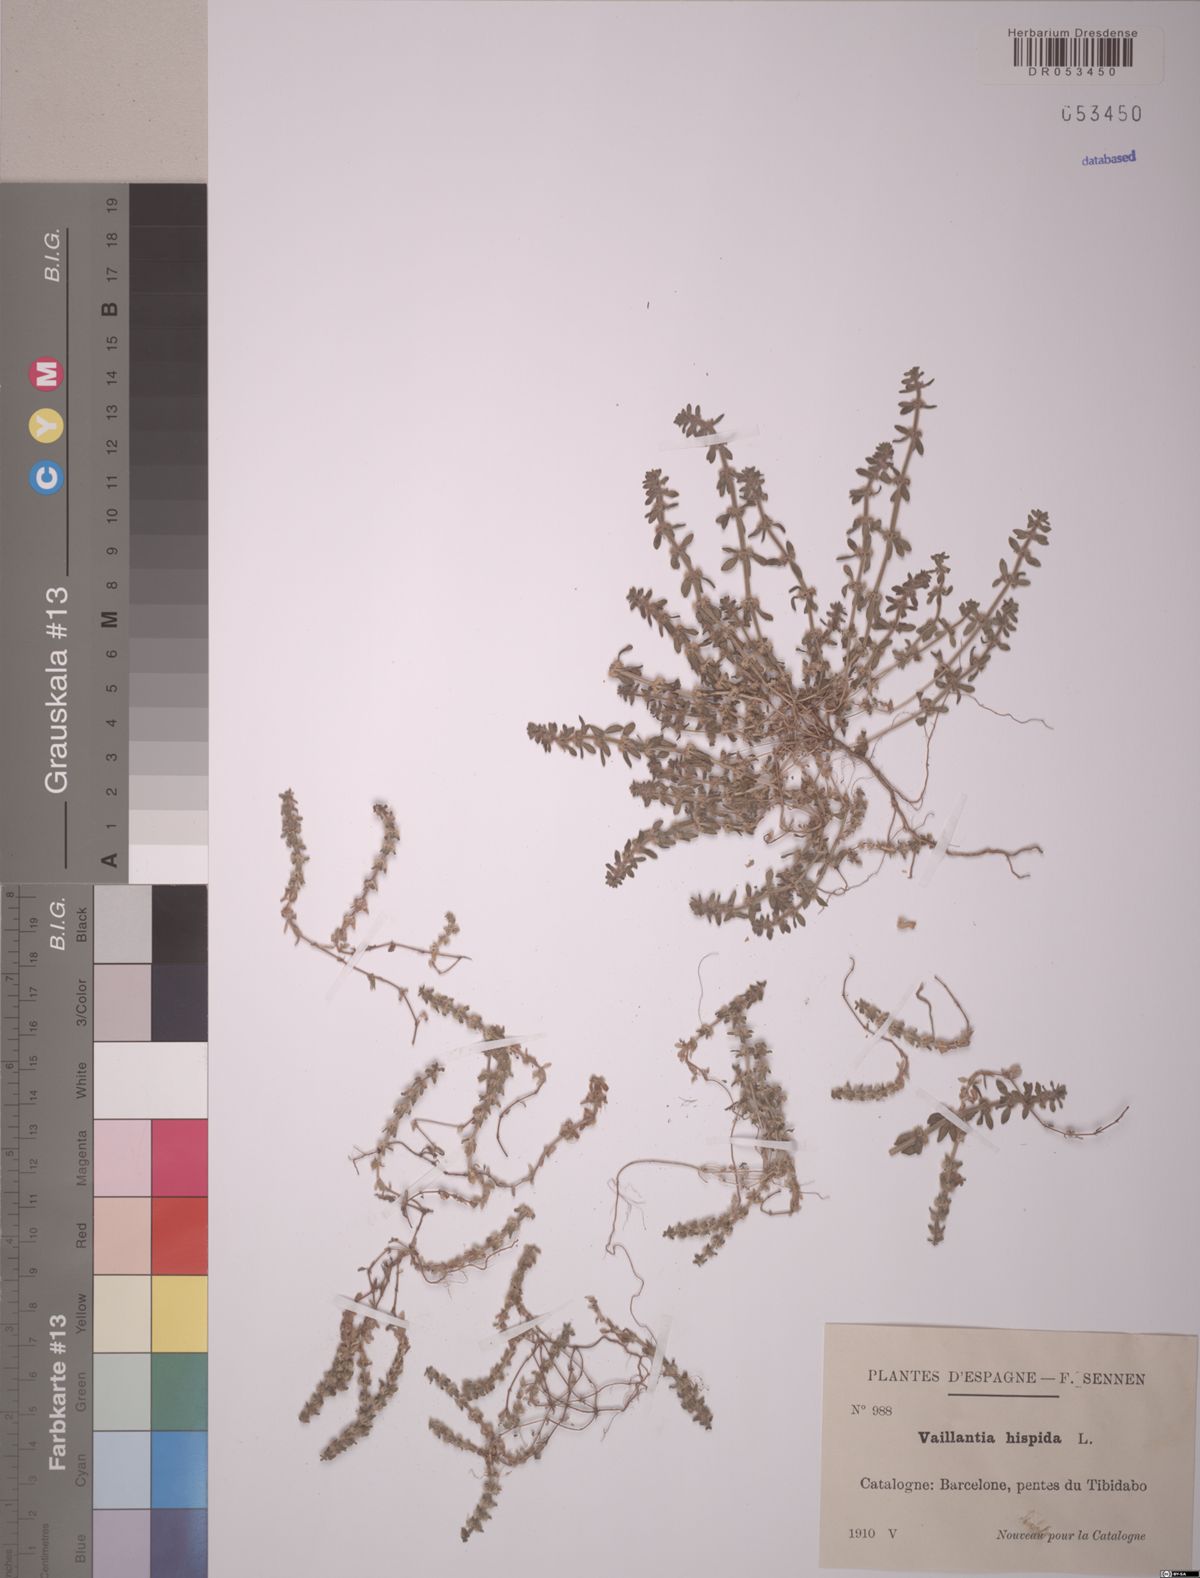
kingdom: Plantae
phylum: Tracheophyta
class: Magnoliopsida
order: Gentianales
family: Rubiaceae
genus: Valantia
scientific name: Valantia hispida
